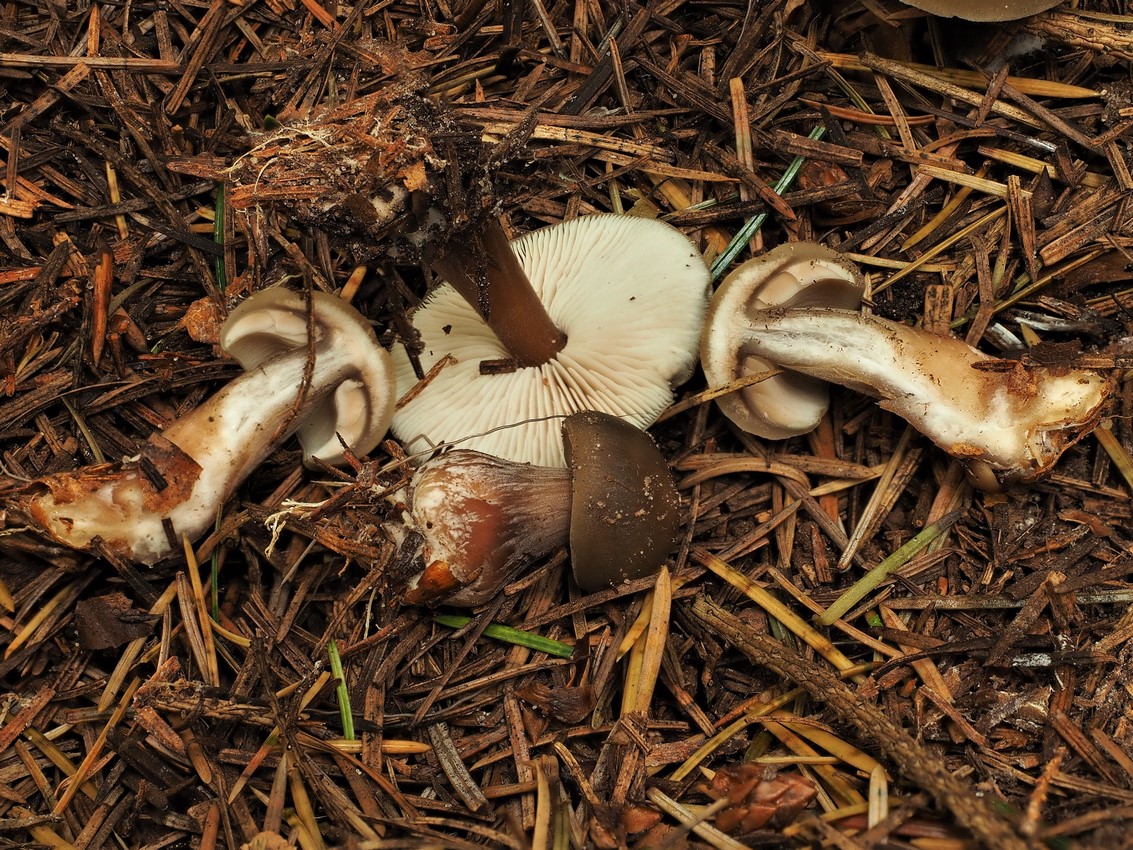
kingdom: Fungi
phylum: Basidiomycota
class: Agaricomycetes
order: Agaricales
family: Omphalotaceae
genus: Rhodocollybia
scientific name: Rhodocollybia asema
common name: horngrå fladhat
